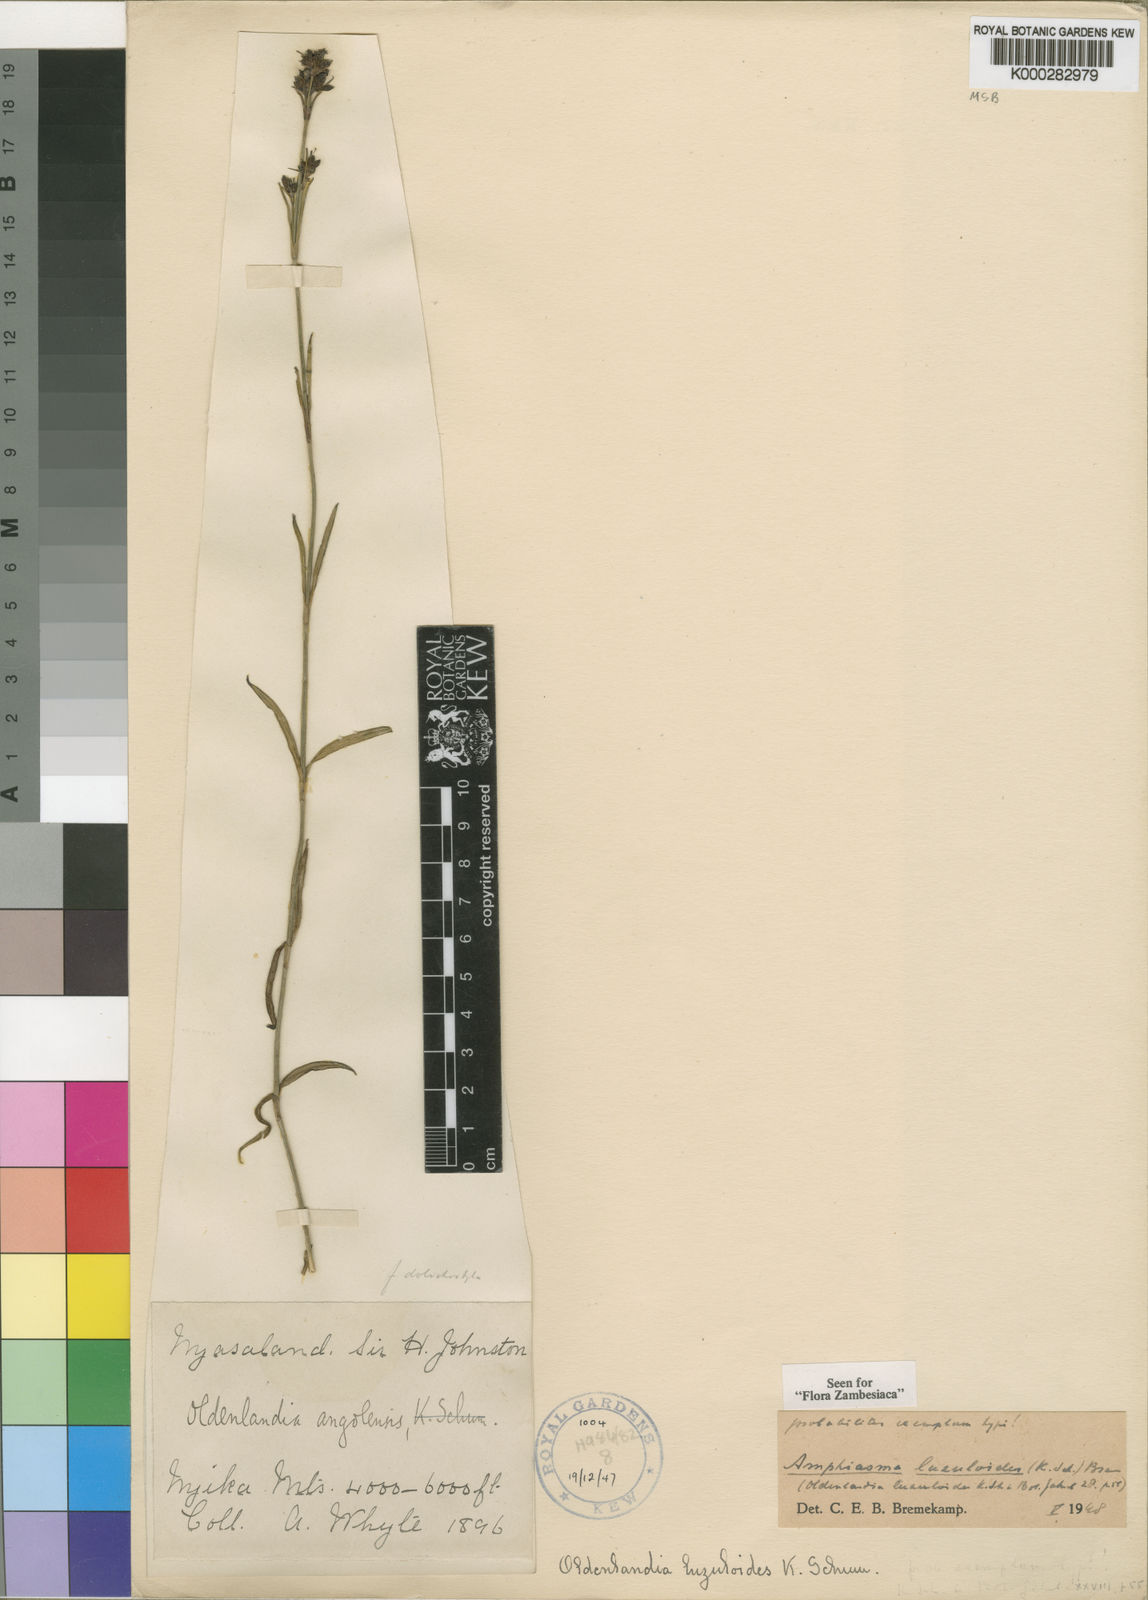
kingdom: Plantae
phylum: Tracheophyta
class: Magnoliopsida
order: Gentianales
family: Rubiaceae
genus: Amphiasma
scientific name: Amphiasma luzuloides
